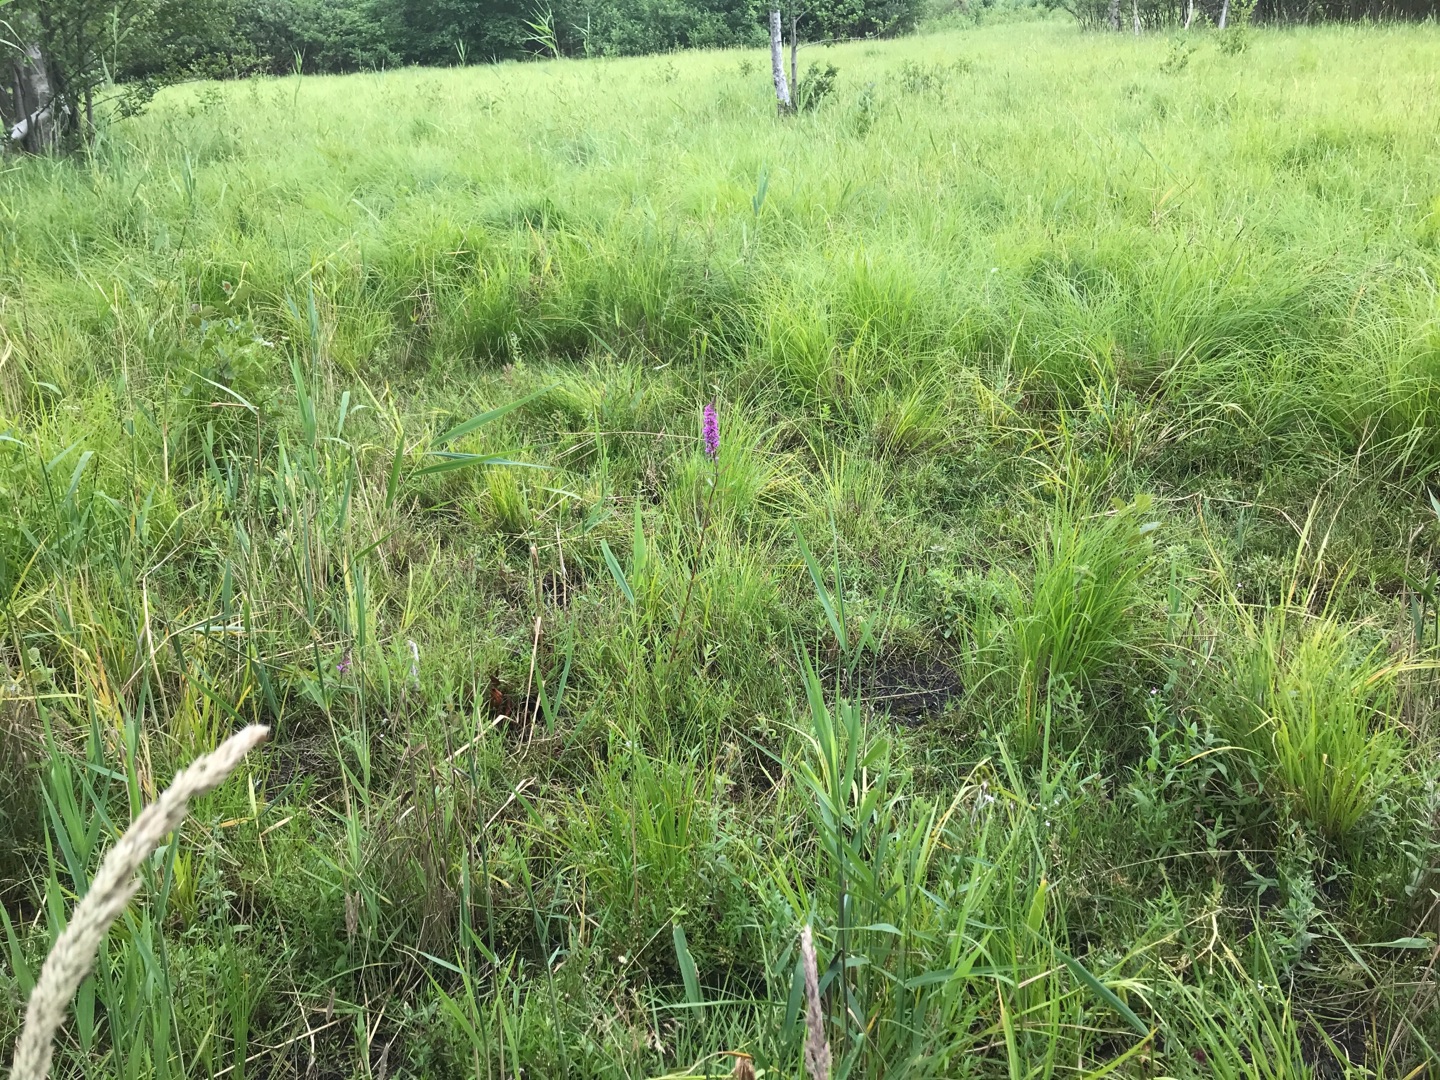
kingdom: Plantae
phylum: Tracheophyta
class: Magnoliopsida
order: Myrtales
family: Lythraceae
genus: Lythrum
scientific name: Lythrum salicaria
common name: Kattehale
